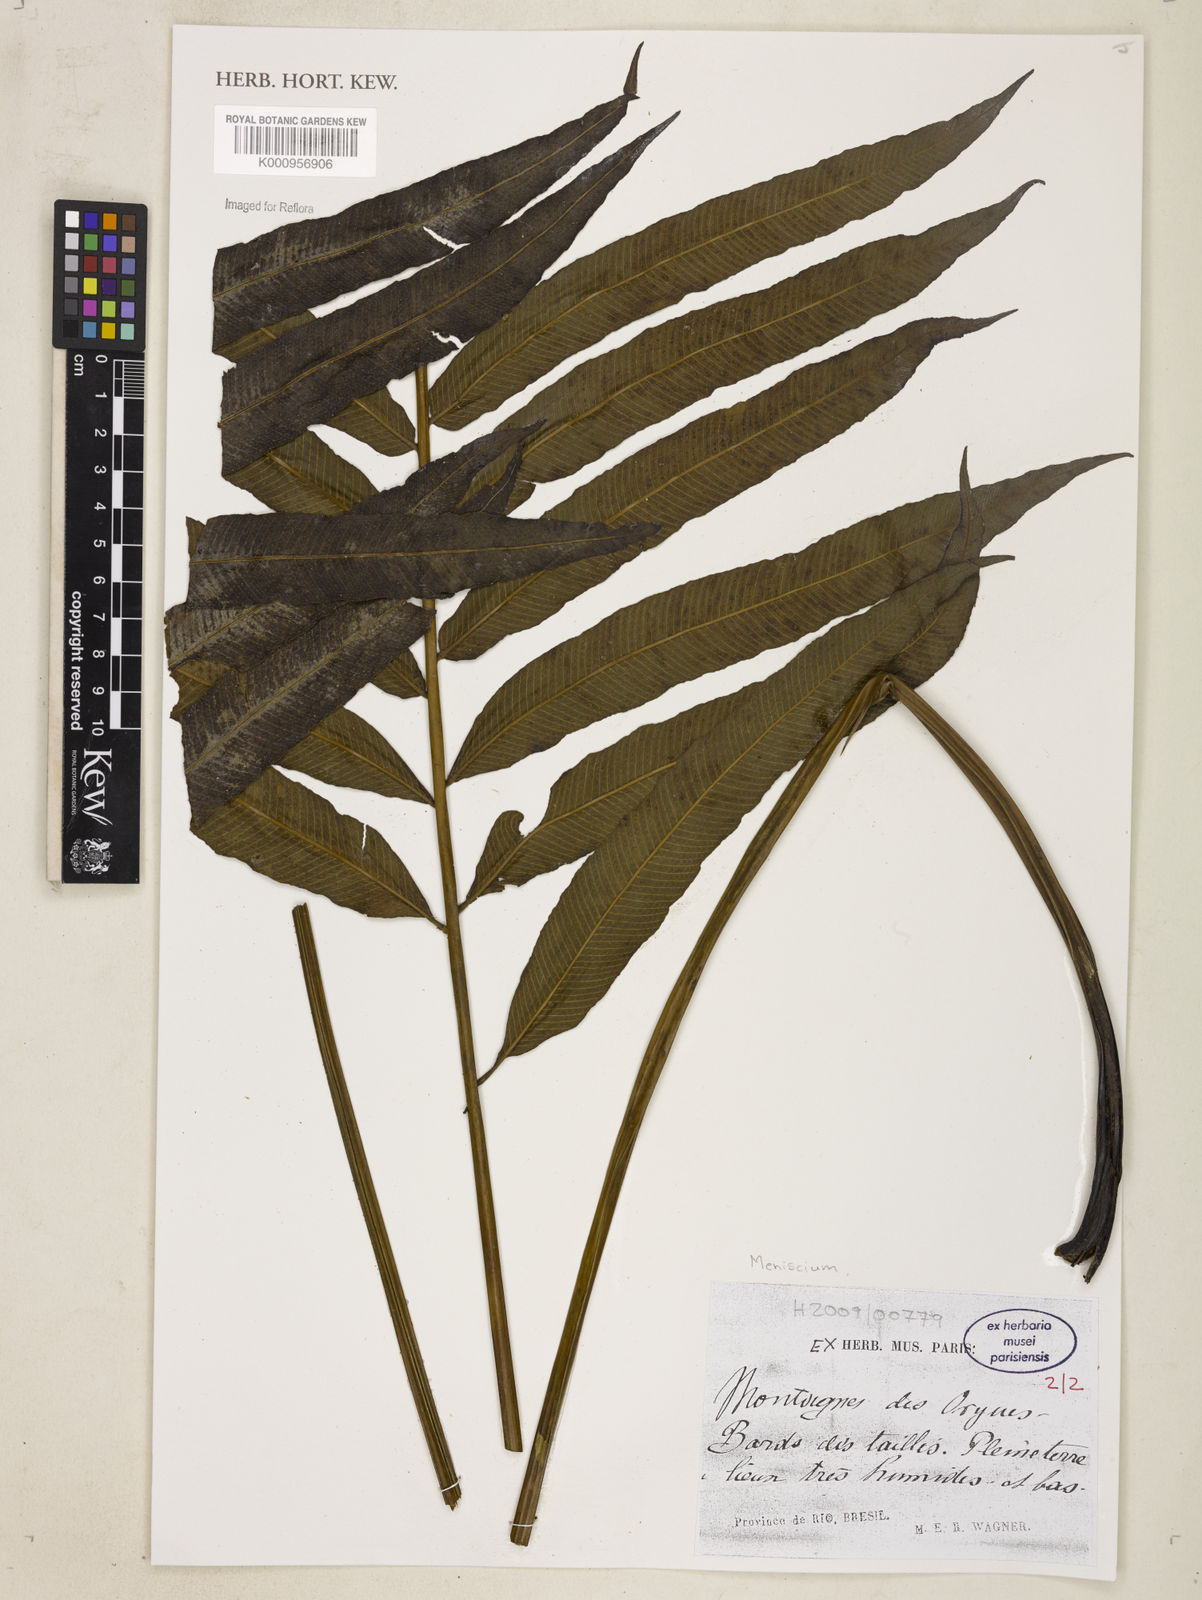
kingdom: Plantae
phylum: Tracheophyta
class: Polypodiopsida
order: Polypodiales
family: Thelypteridaceae
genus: Meniscium
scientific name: Meniscium
